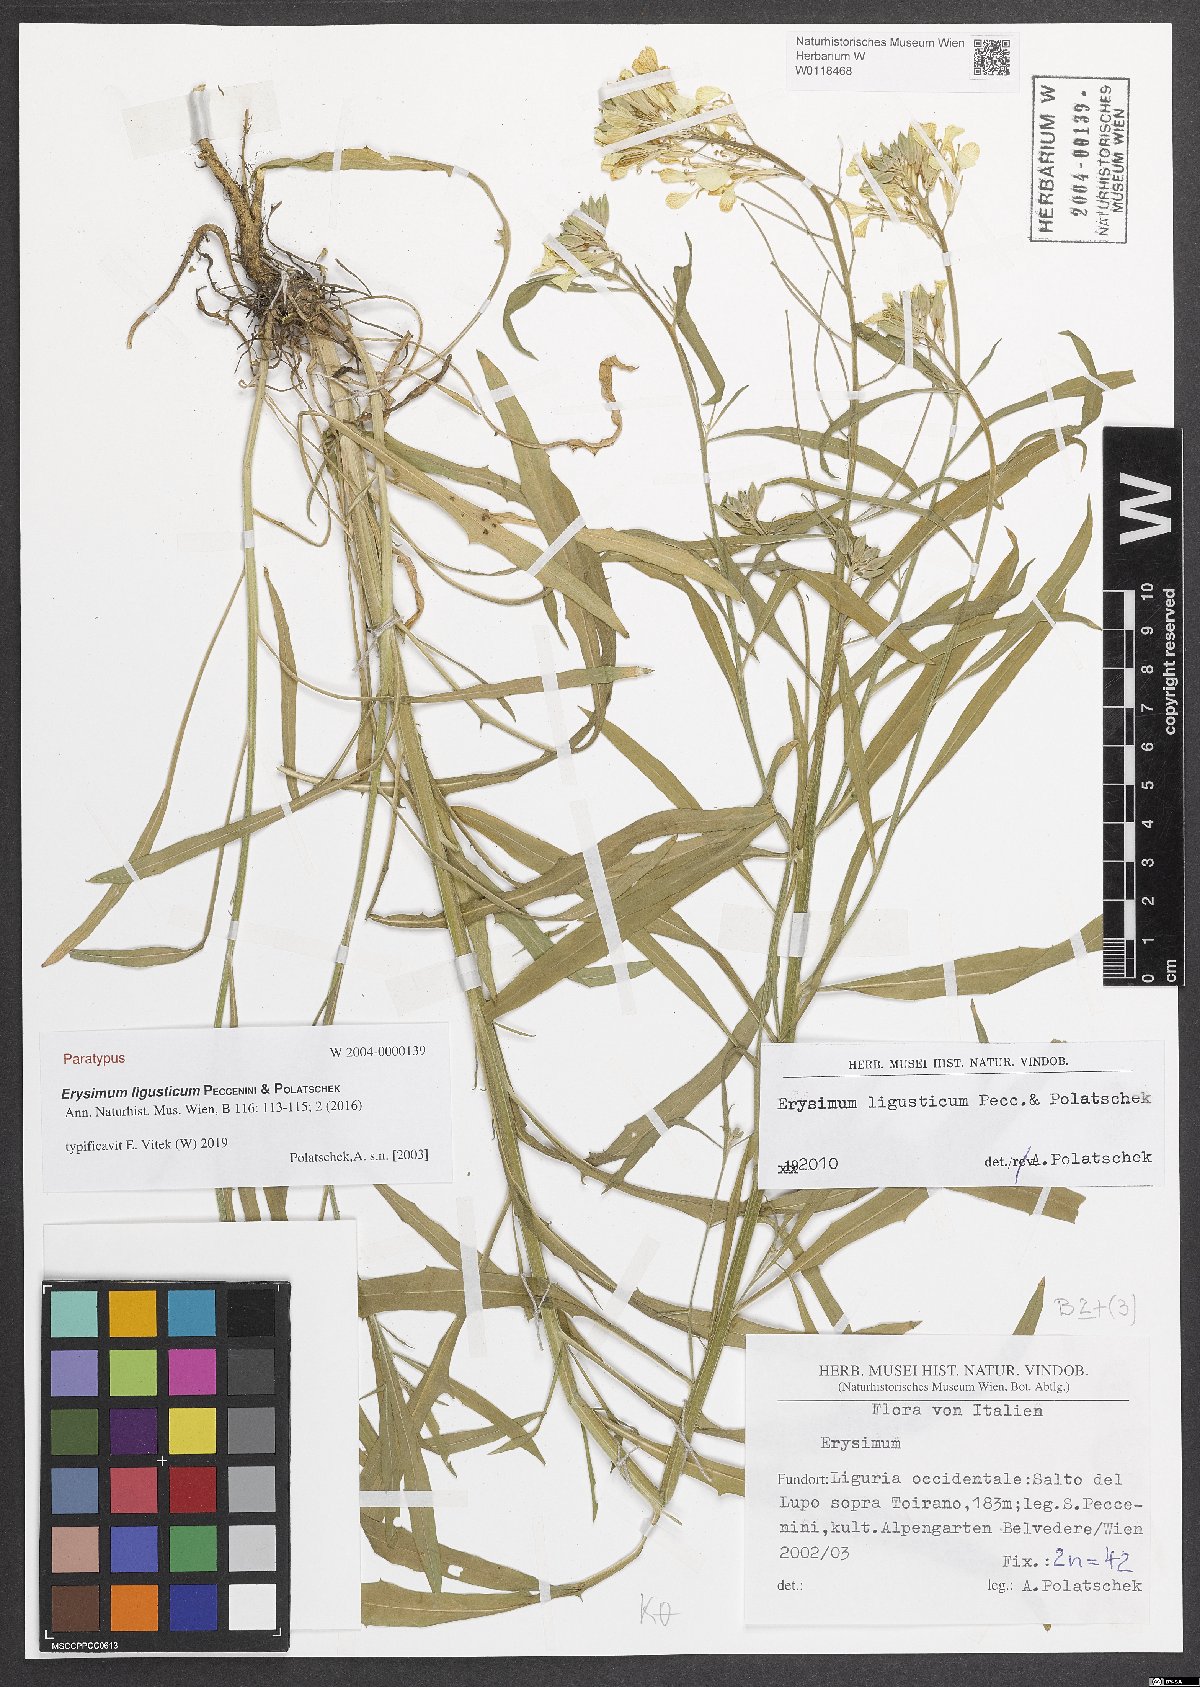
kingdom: Plantae
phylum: Tracheophyta
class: Magnoliopsida
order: Brassicales
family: Brassicaceae
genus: Erysimum
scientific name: Erysimum ligusticum
